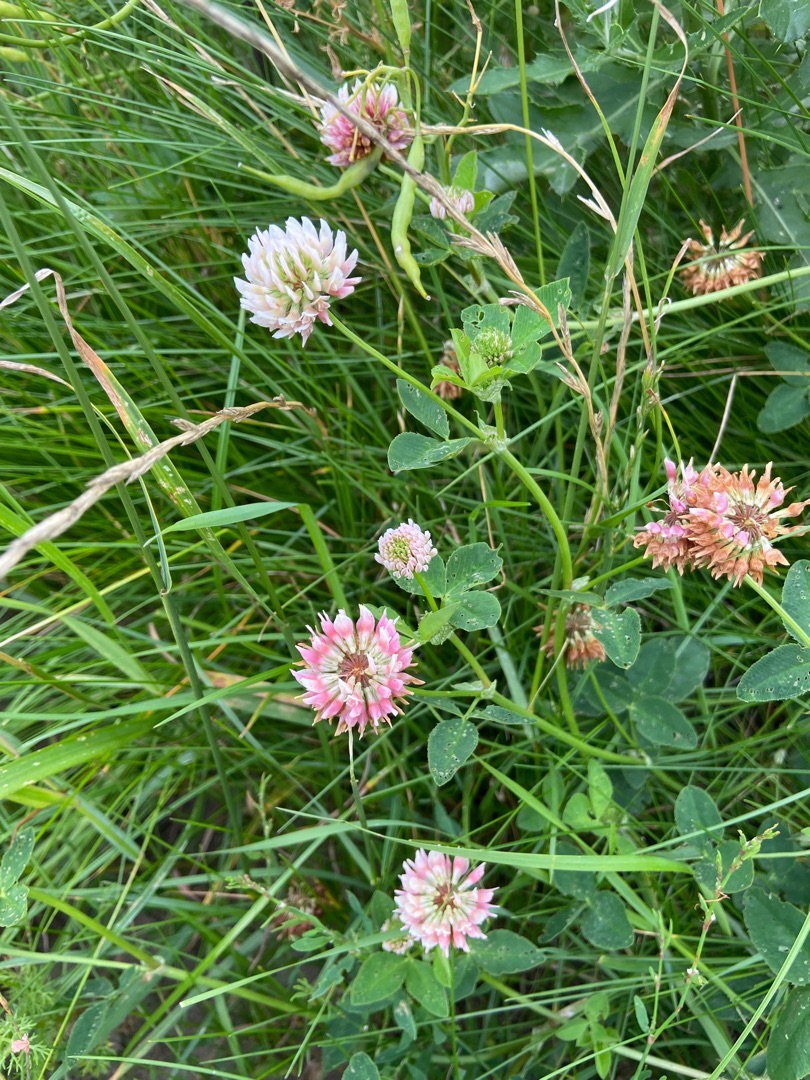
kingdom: Plantae
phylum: Tracheophyta
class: Magnoliopsida
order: Fabales
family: Fabaceae
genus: Trifolium
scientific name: Trifolium hybridum
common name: Alsike-kløver
